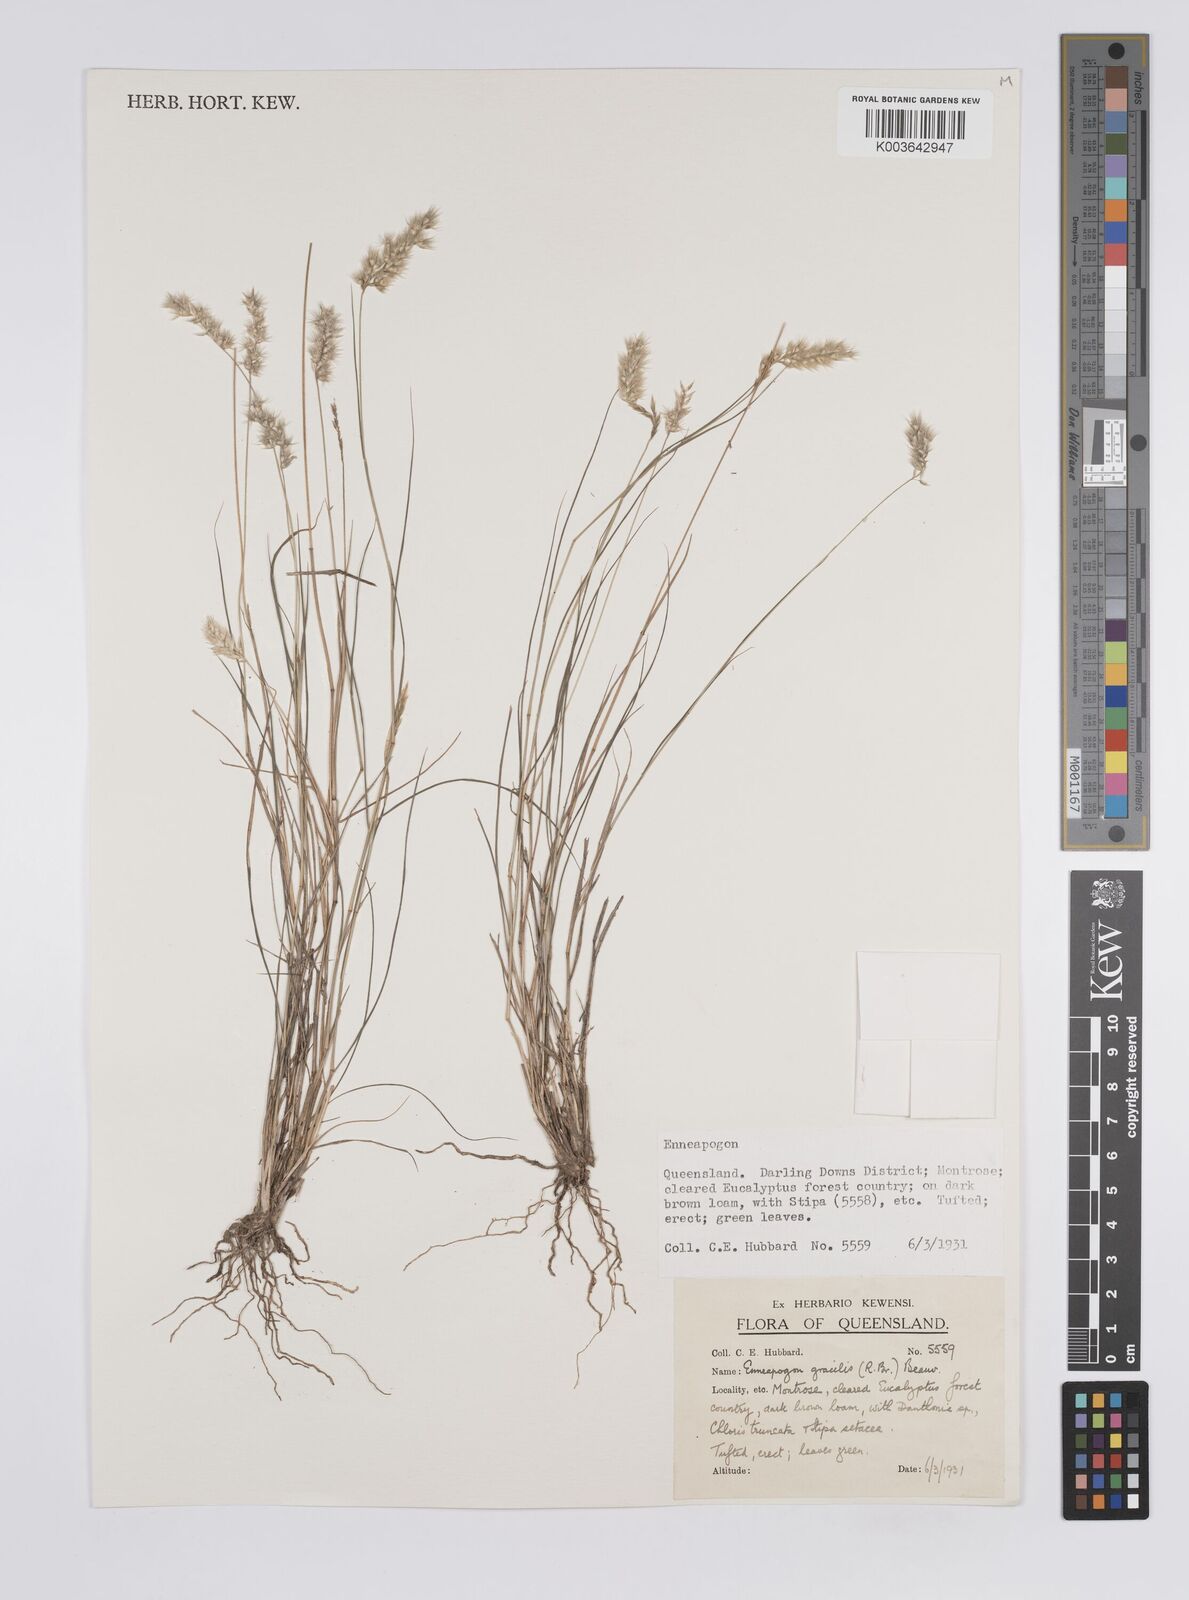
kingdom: Plantae
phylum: Tracheophyta
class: Liliopsida
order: Poales
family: Poaceae
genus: Enneapogon
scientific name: Enneapogon gracilis
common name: Slender bottle-washers
